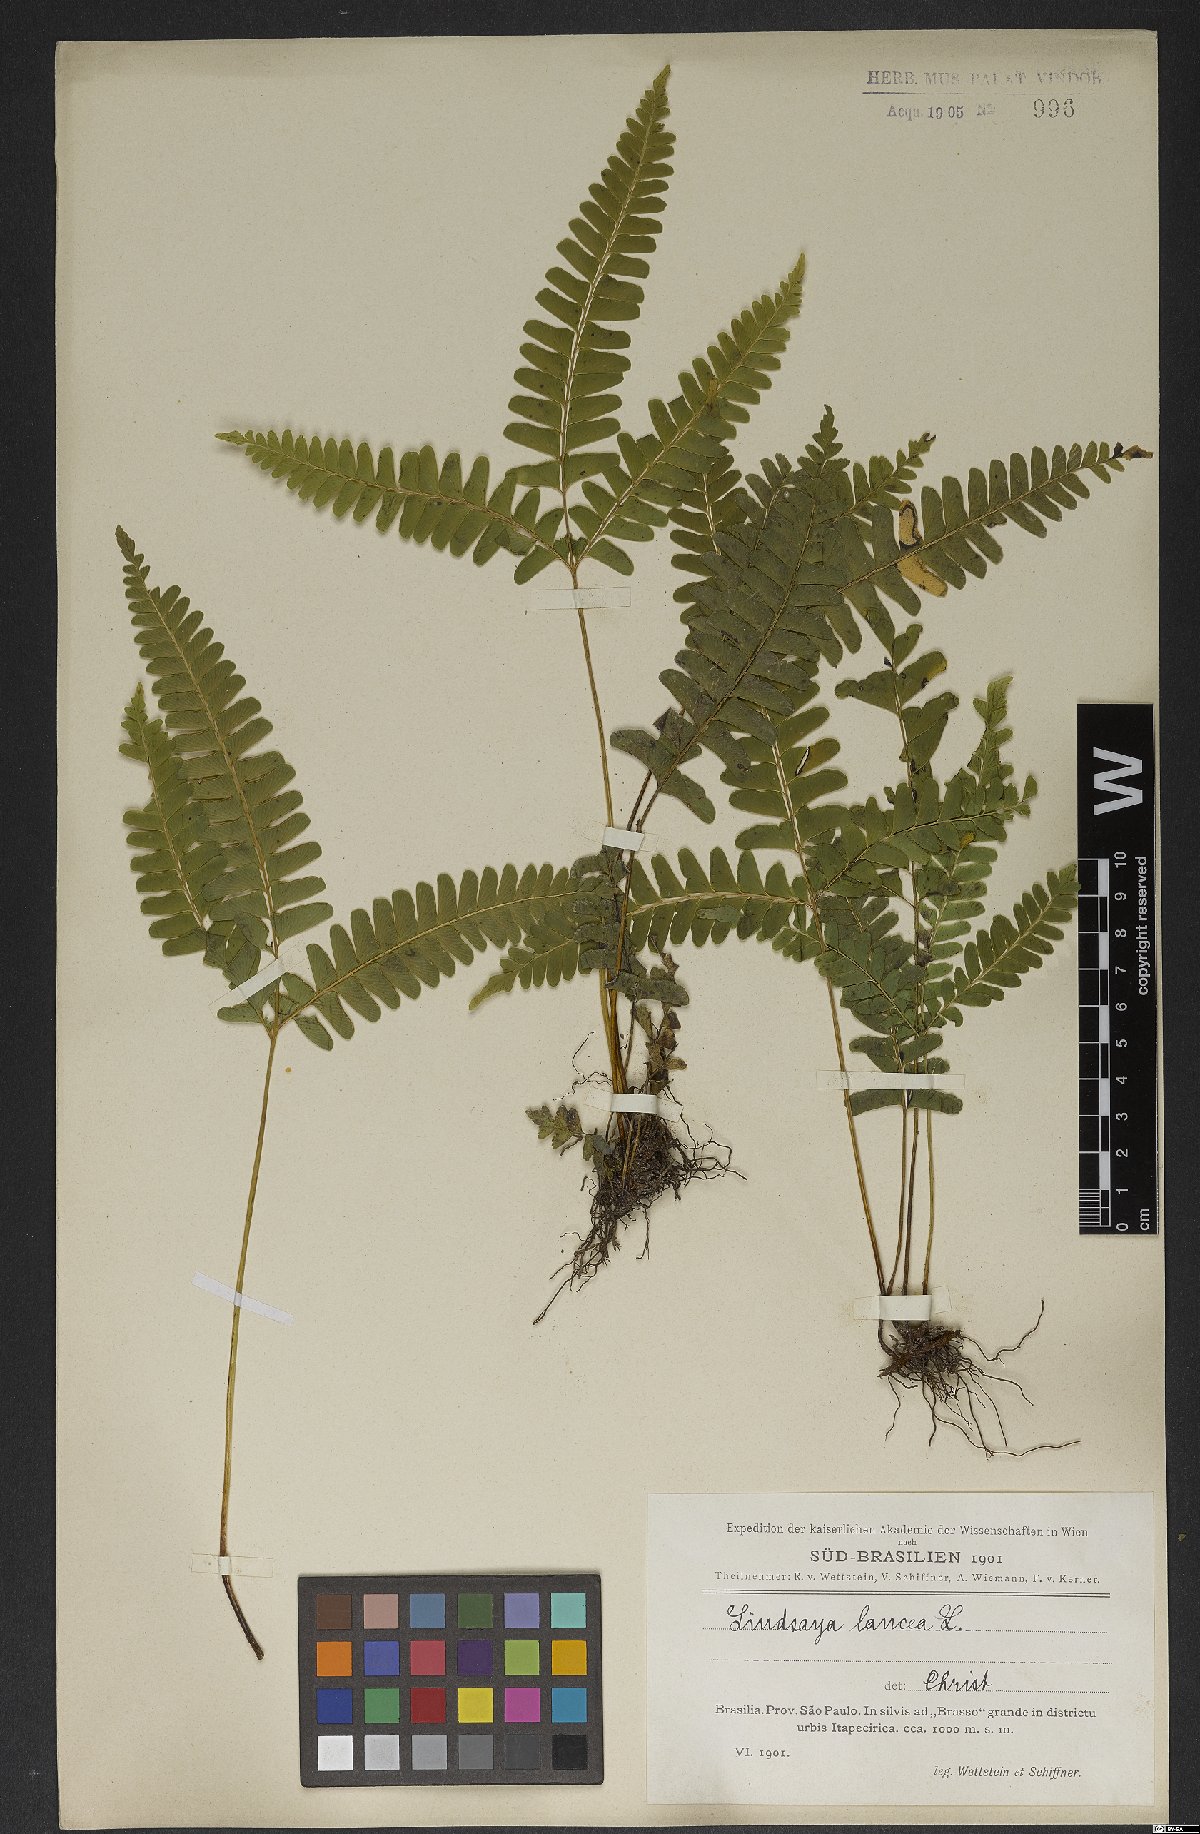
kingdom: Plantae
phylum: Tracheophyta
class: Polypodiopsida
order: Polypodiales
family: Lindsaeaceae
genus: Lindsaea
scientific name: Lindsaea lancea
